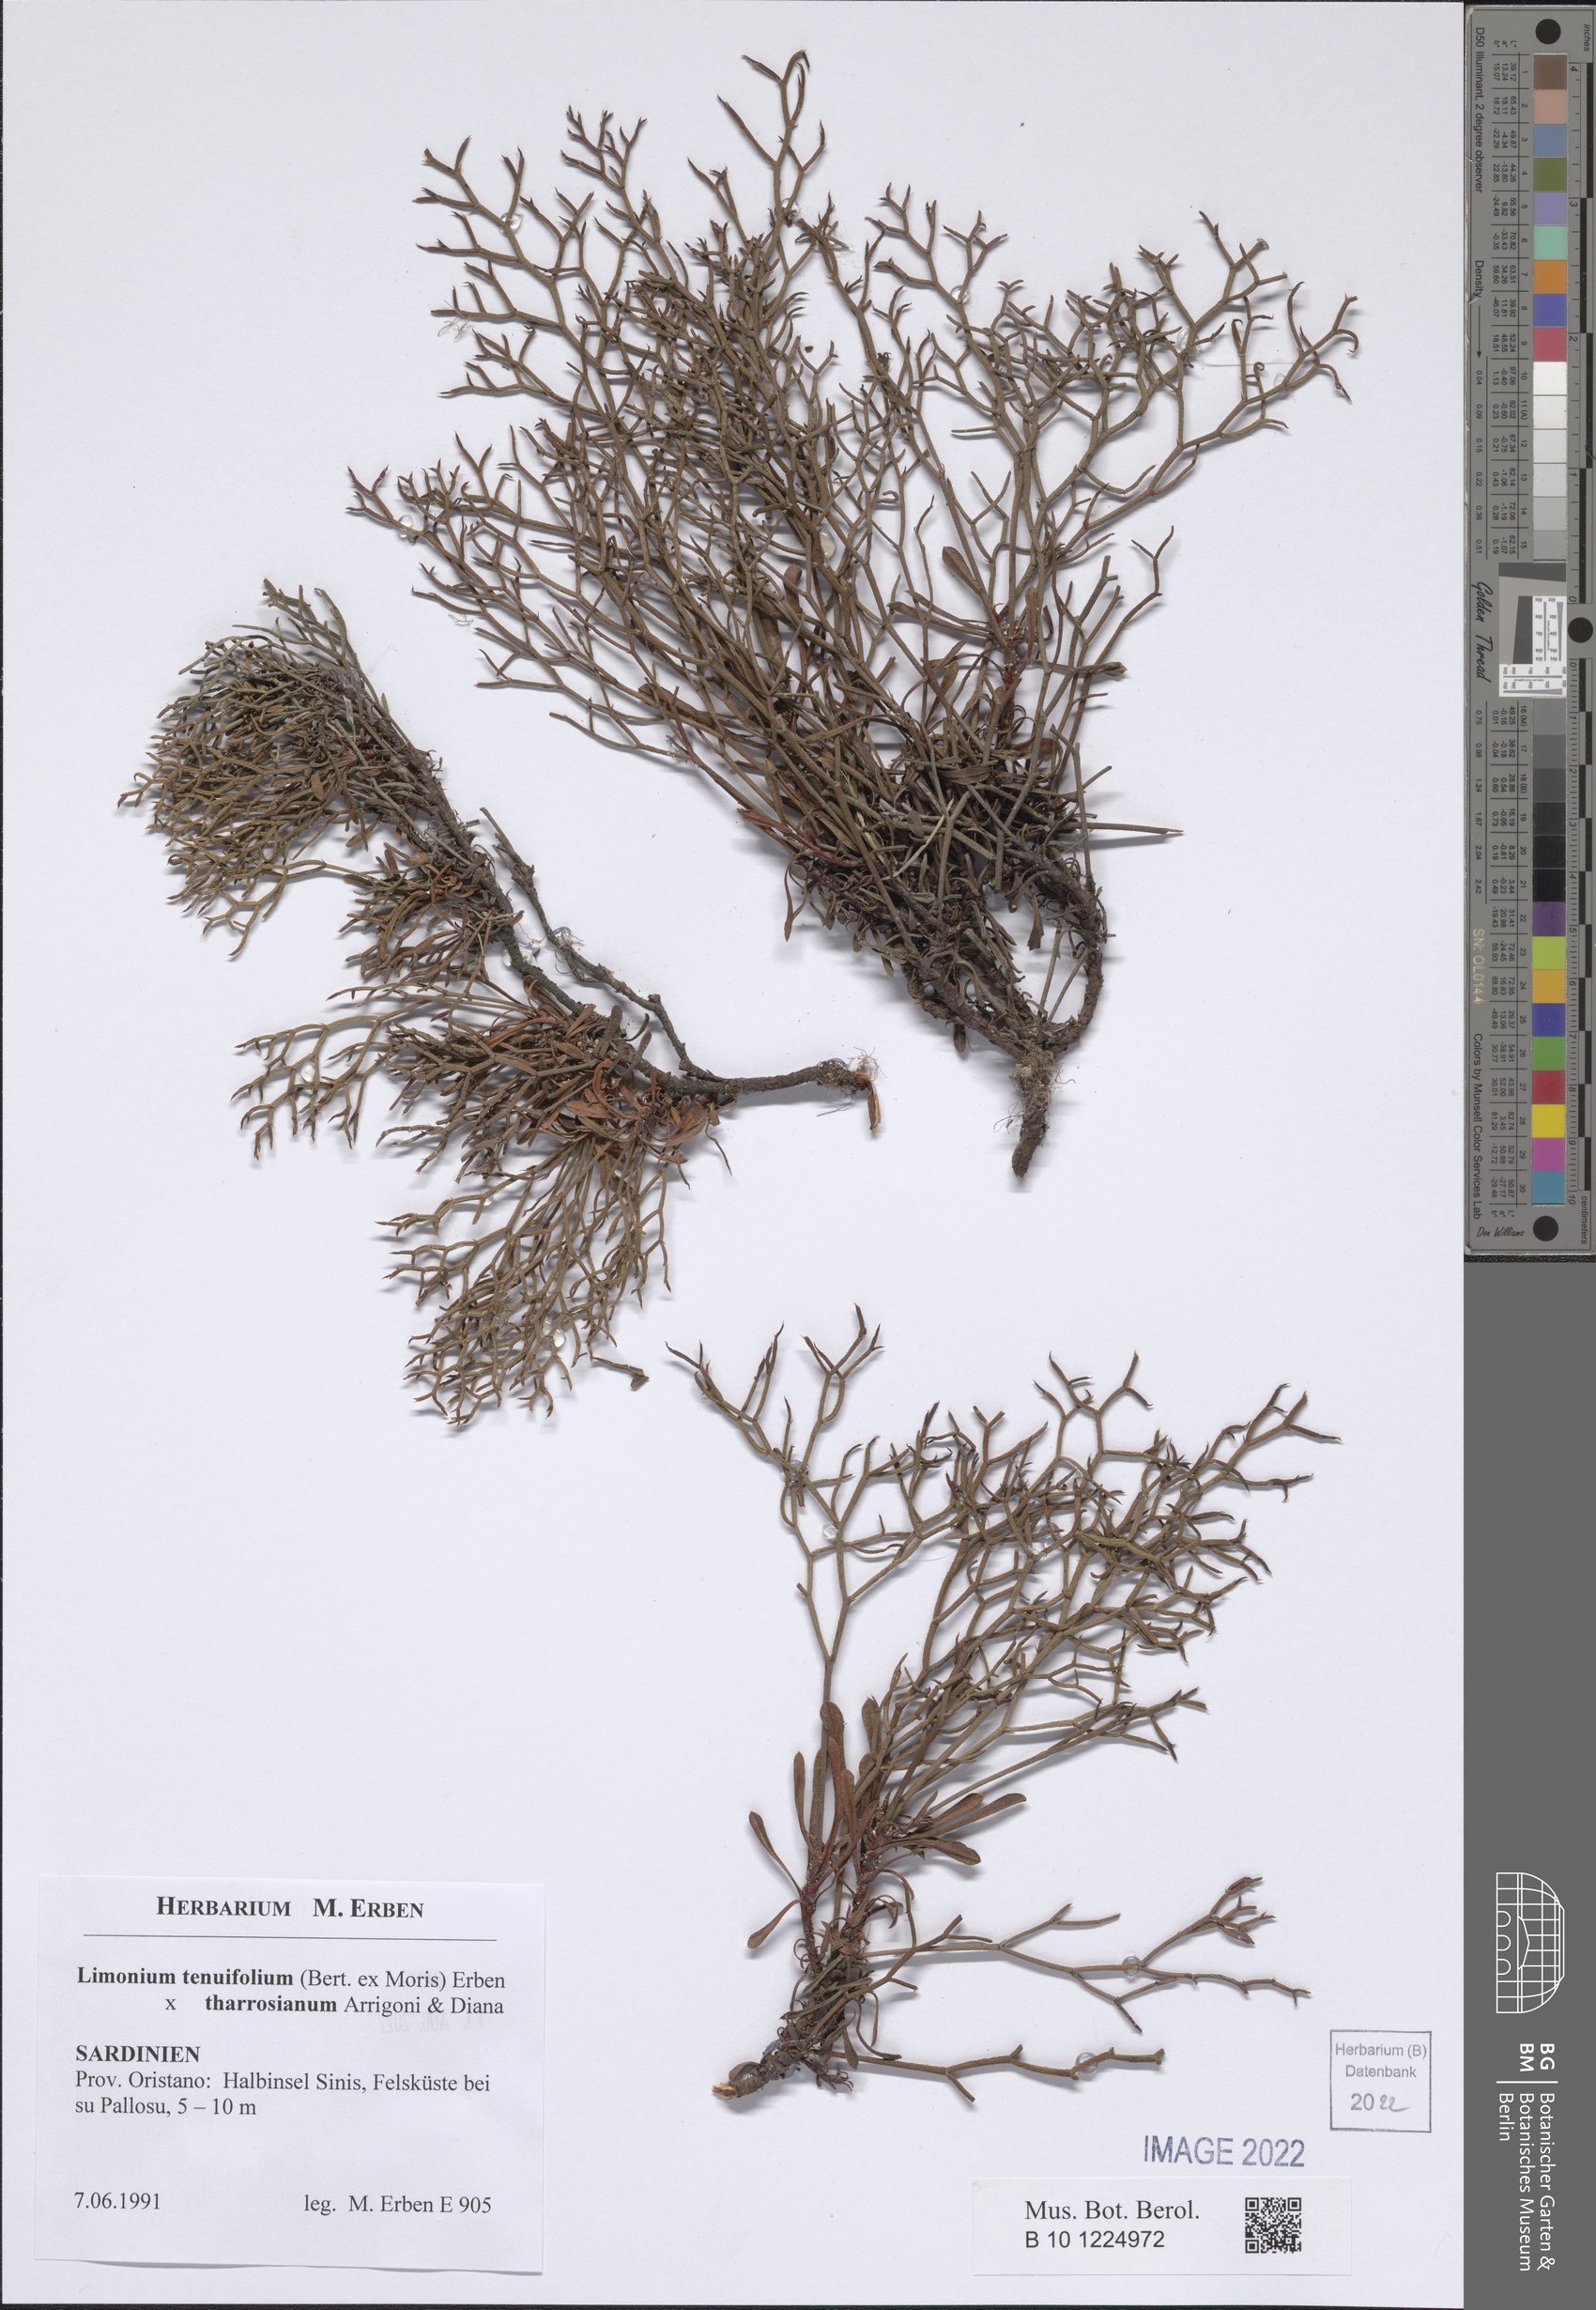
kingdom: Plantae
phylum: Tracheophyta
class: Magnoliopsida
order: Caryophyllales
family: Plumbaginaceae
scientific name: Plumbaginaceae
